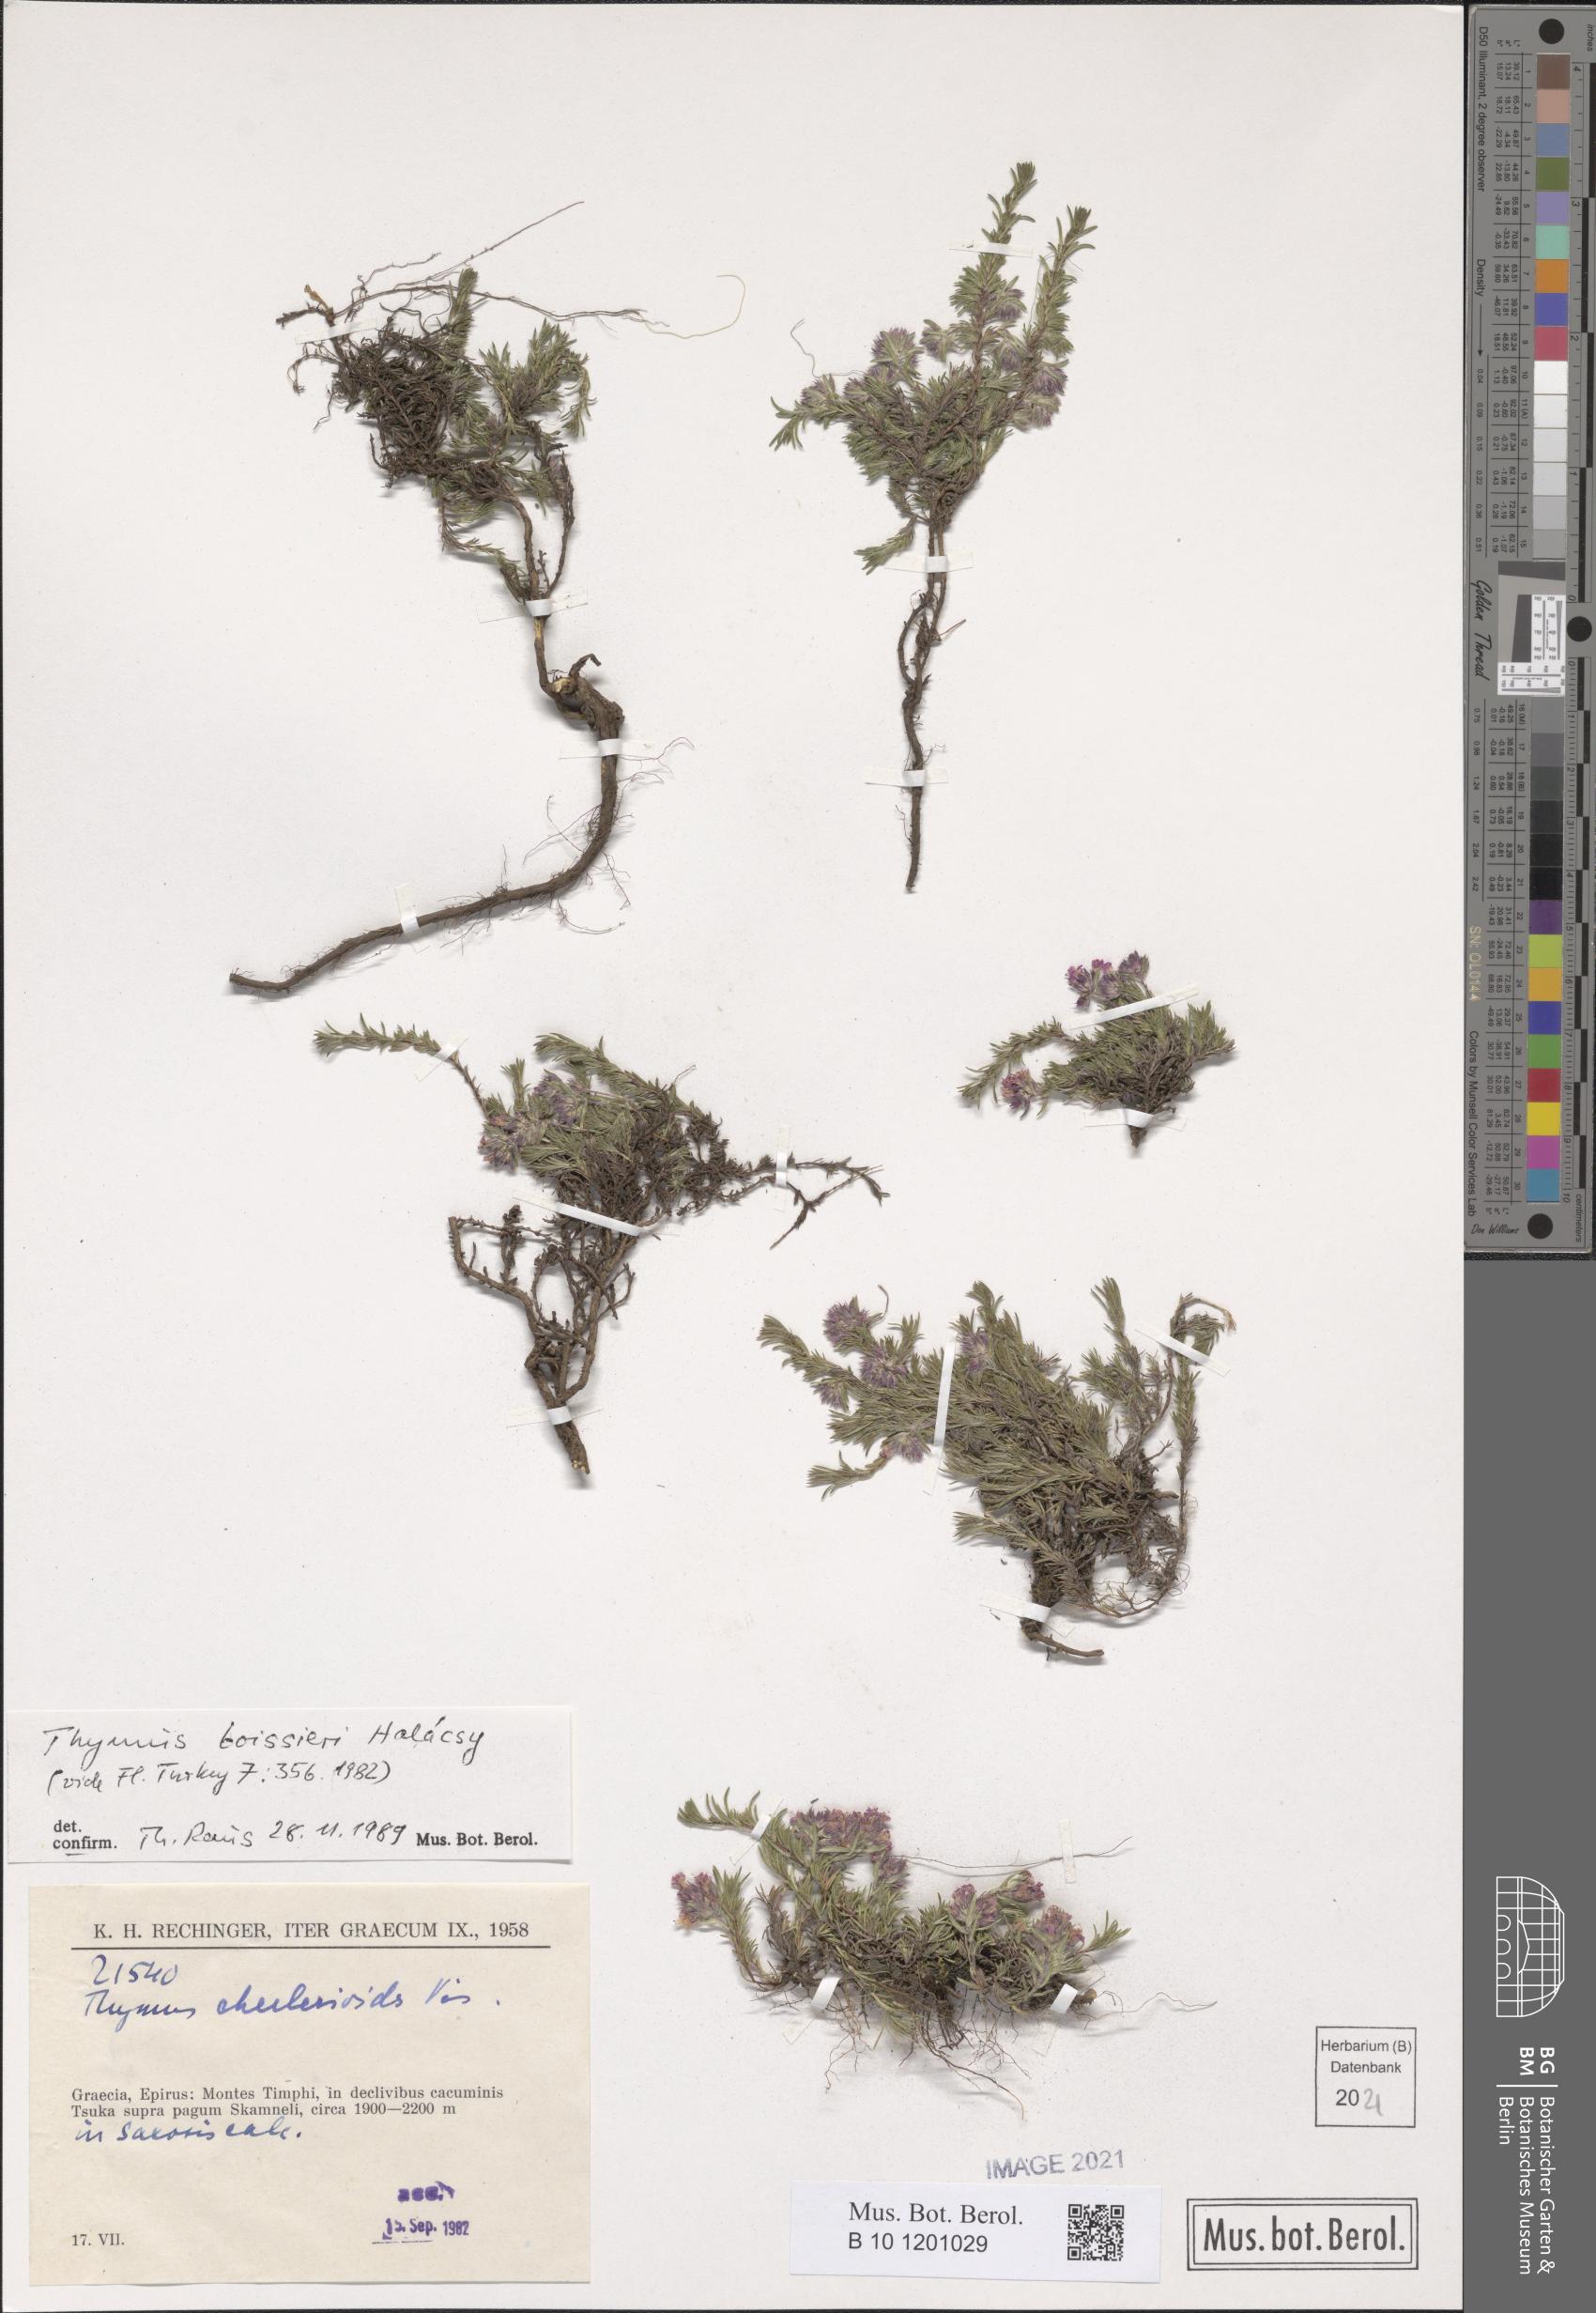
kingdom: Plantae
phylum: Tracheophyta
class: Magnoliopsida
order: Lamiales
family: Lamiaceae
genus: Thymus
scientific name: Thymus boissieri
